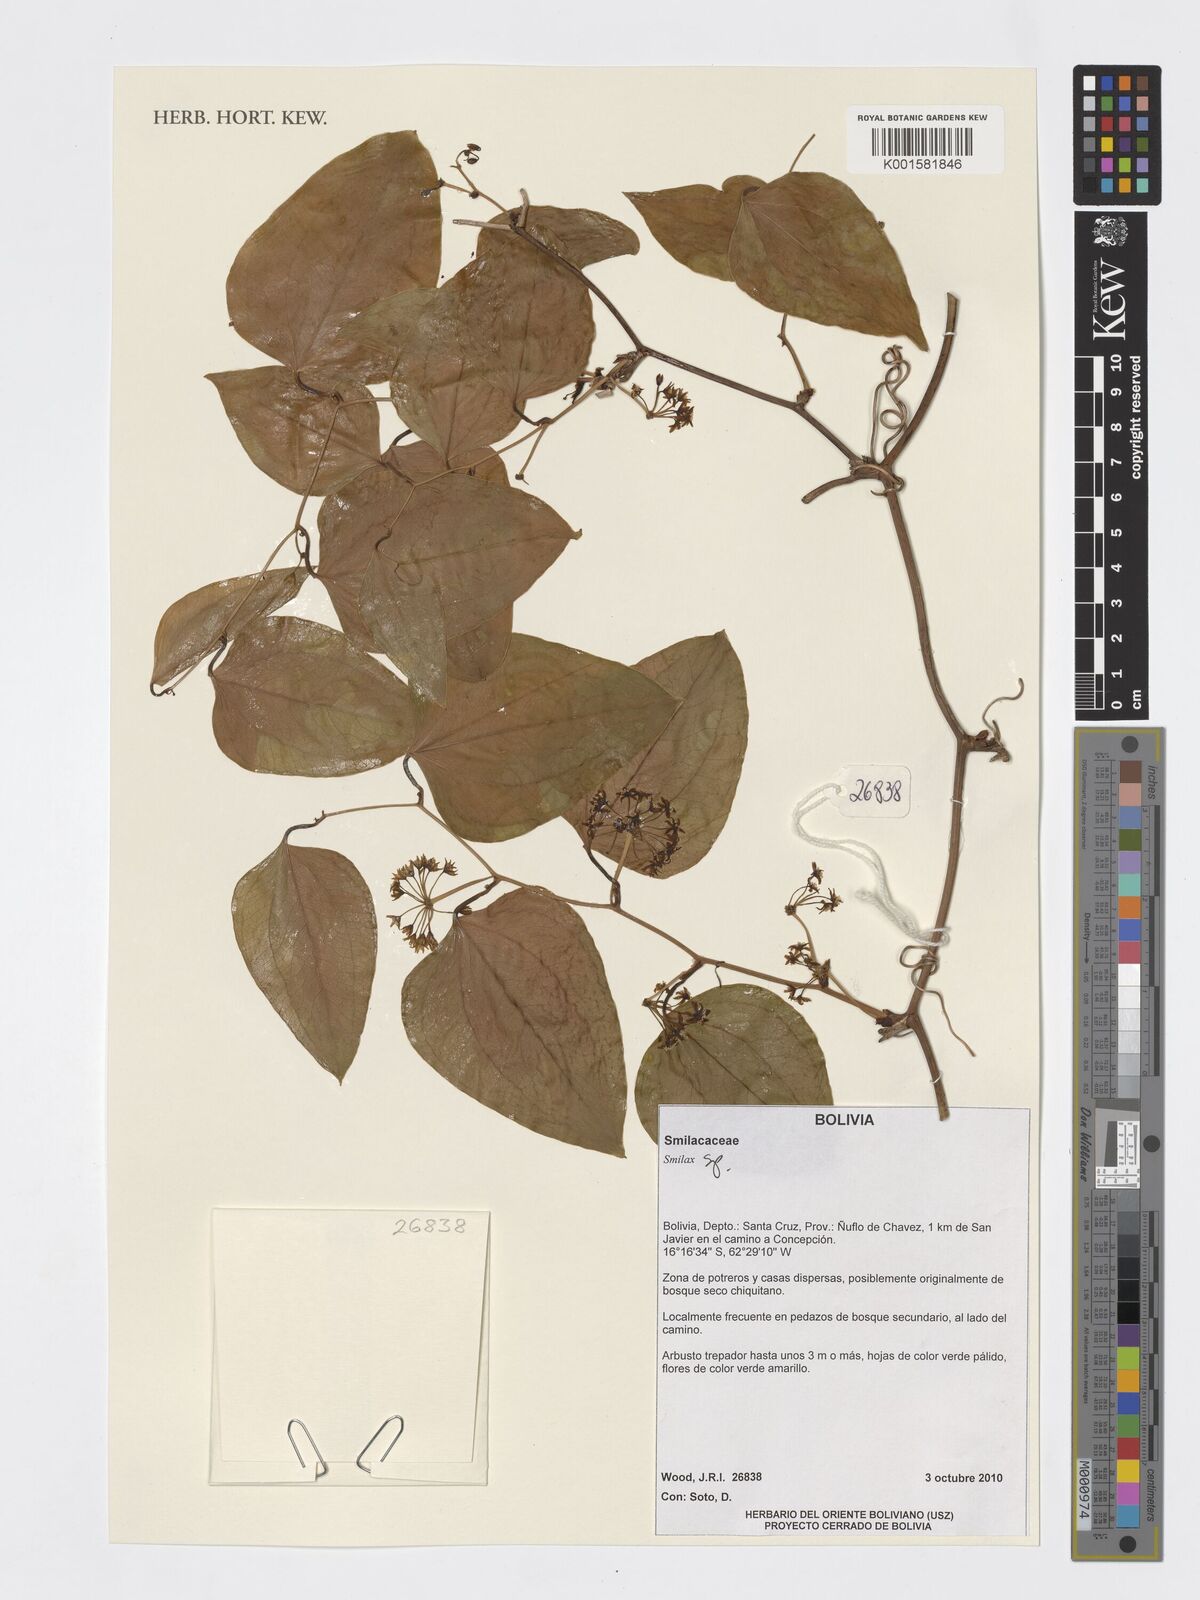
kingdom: Plantae
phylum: Tracheophyta
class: Liliopsida
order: Liliales
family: Smilacaceae
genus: Smilax
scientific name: Smilax
